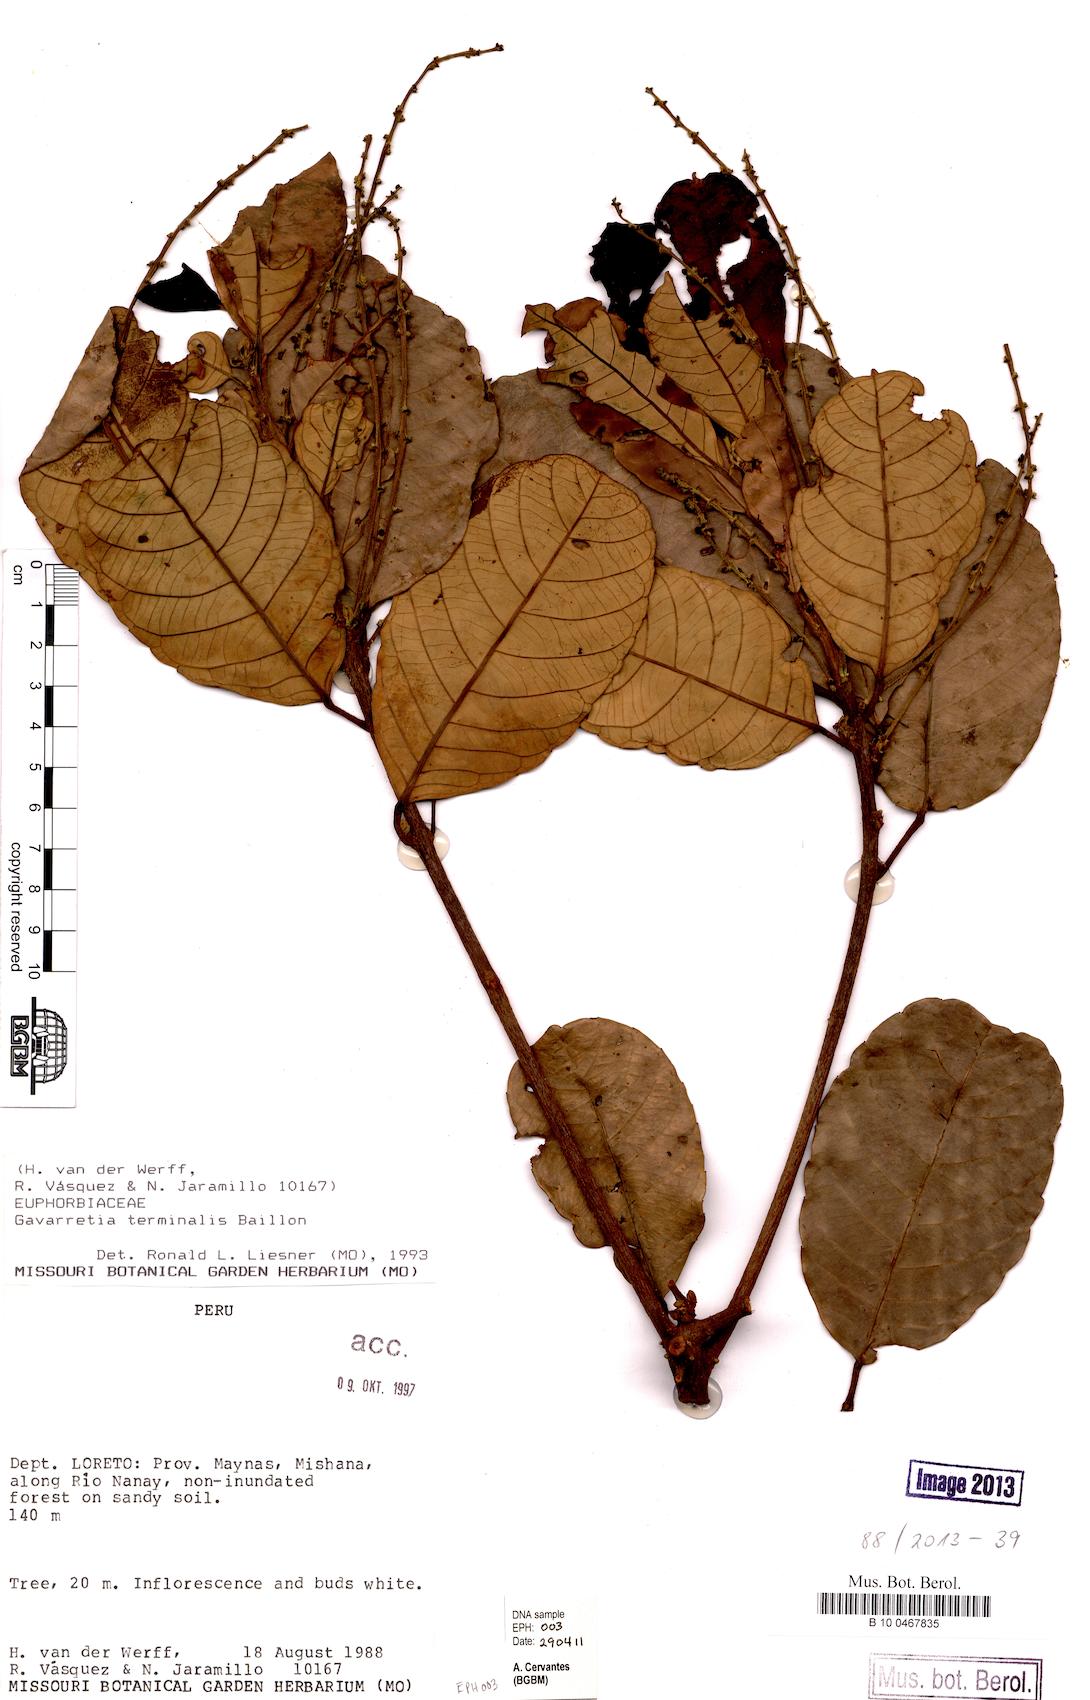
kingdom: Plantae
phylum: Tracheophyta
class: Magnoliopsida
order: Malpighiales
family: Euphorbiaceae
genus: Conceveiba
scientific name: Conceveiba terminalis
